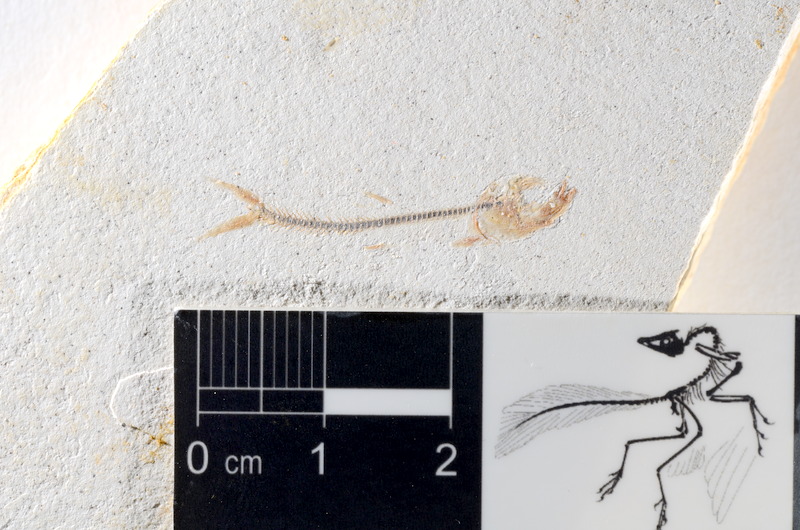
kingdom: Animalia
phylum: Chordata
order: Salmoniformes
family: Orthogonikleithridae
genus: Orthogonikleithrus
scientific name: Orthogonikleithrus hoelli
